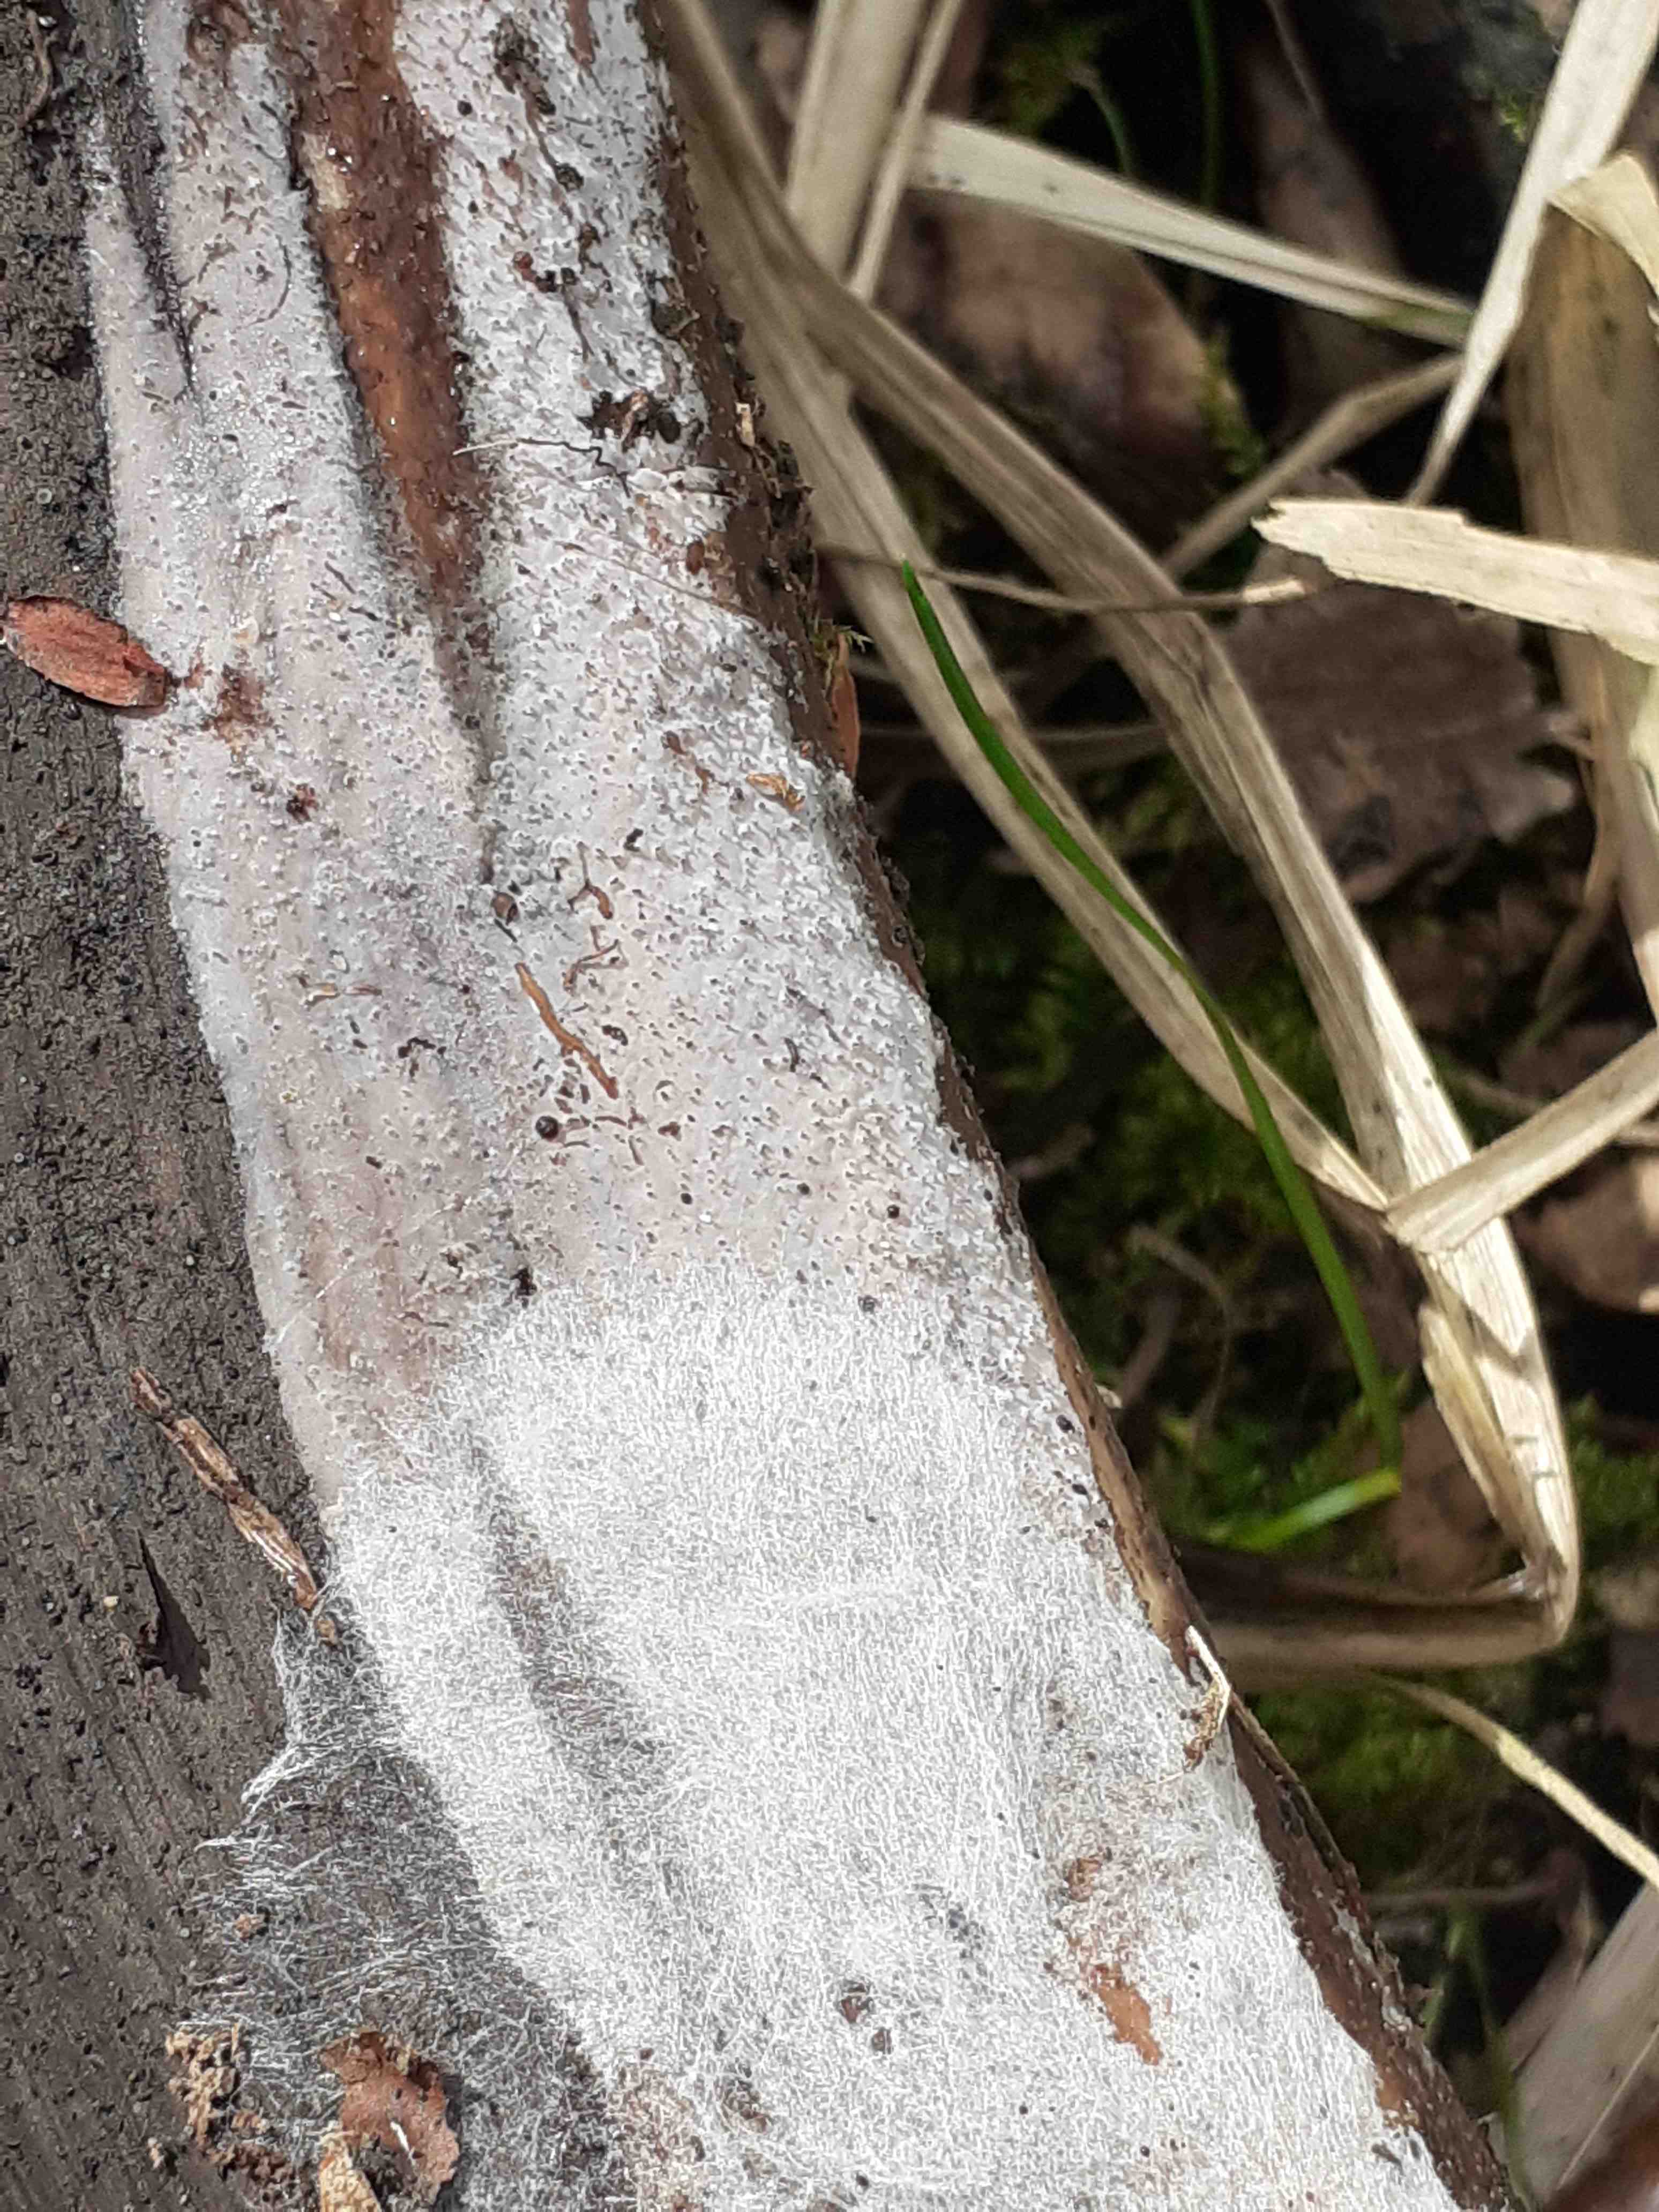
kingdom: Fungi
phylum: Basidiomycota
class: Tremellomycetes
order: Tremellales
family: Exidiaceae
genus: Exidiopsis
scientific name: Exidiopsis effusa
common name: smuk bævrehinde
